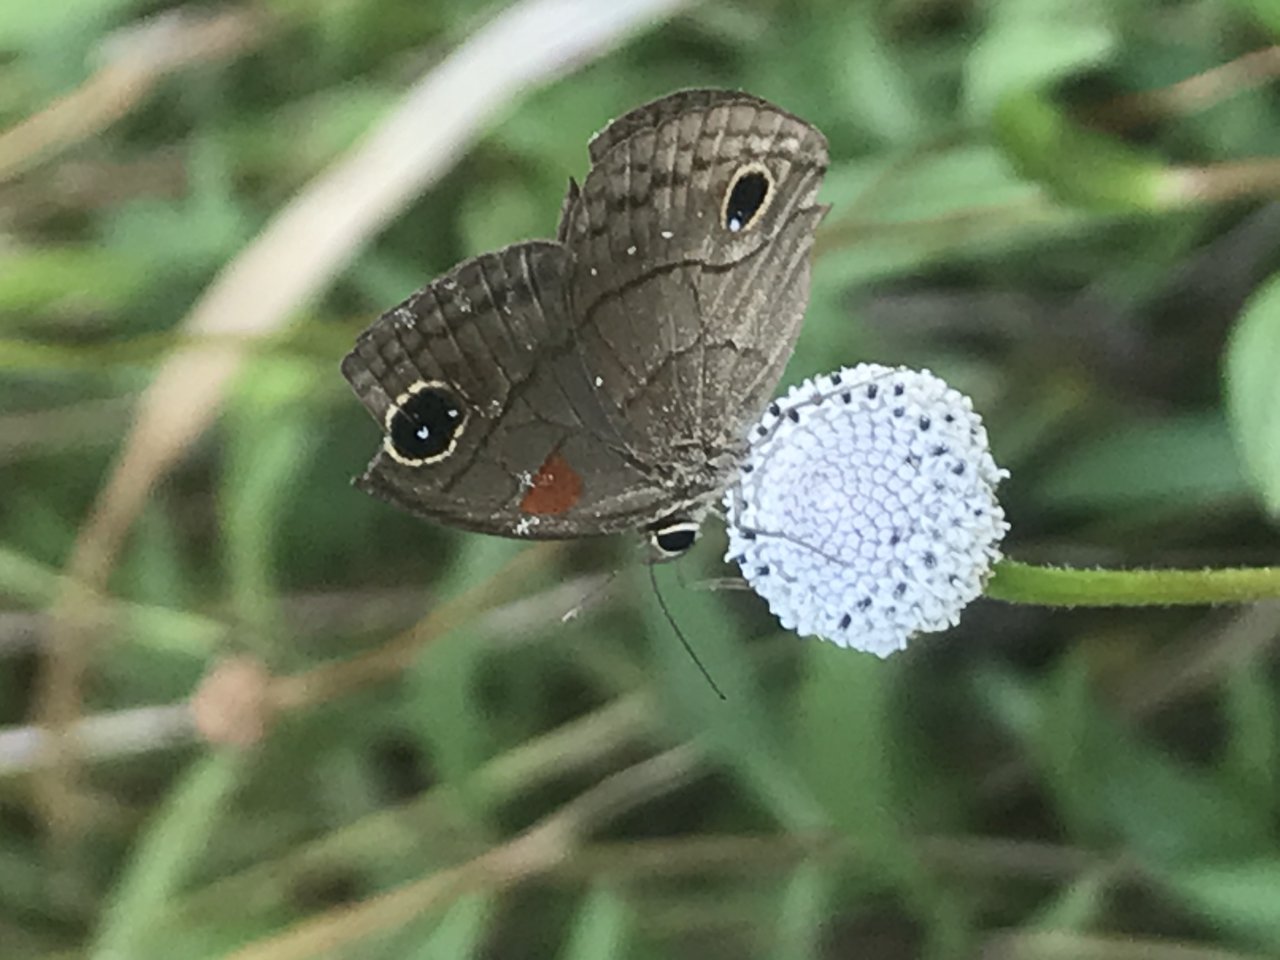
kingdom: Animalia
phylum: Arthropoda
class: Insecta
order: Lepidoptera
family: Nymphalidae
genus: Calisto
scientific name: Calisto herophile
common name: Cuban Calisto
